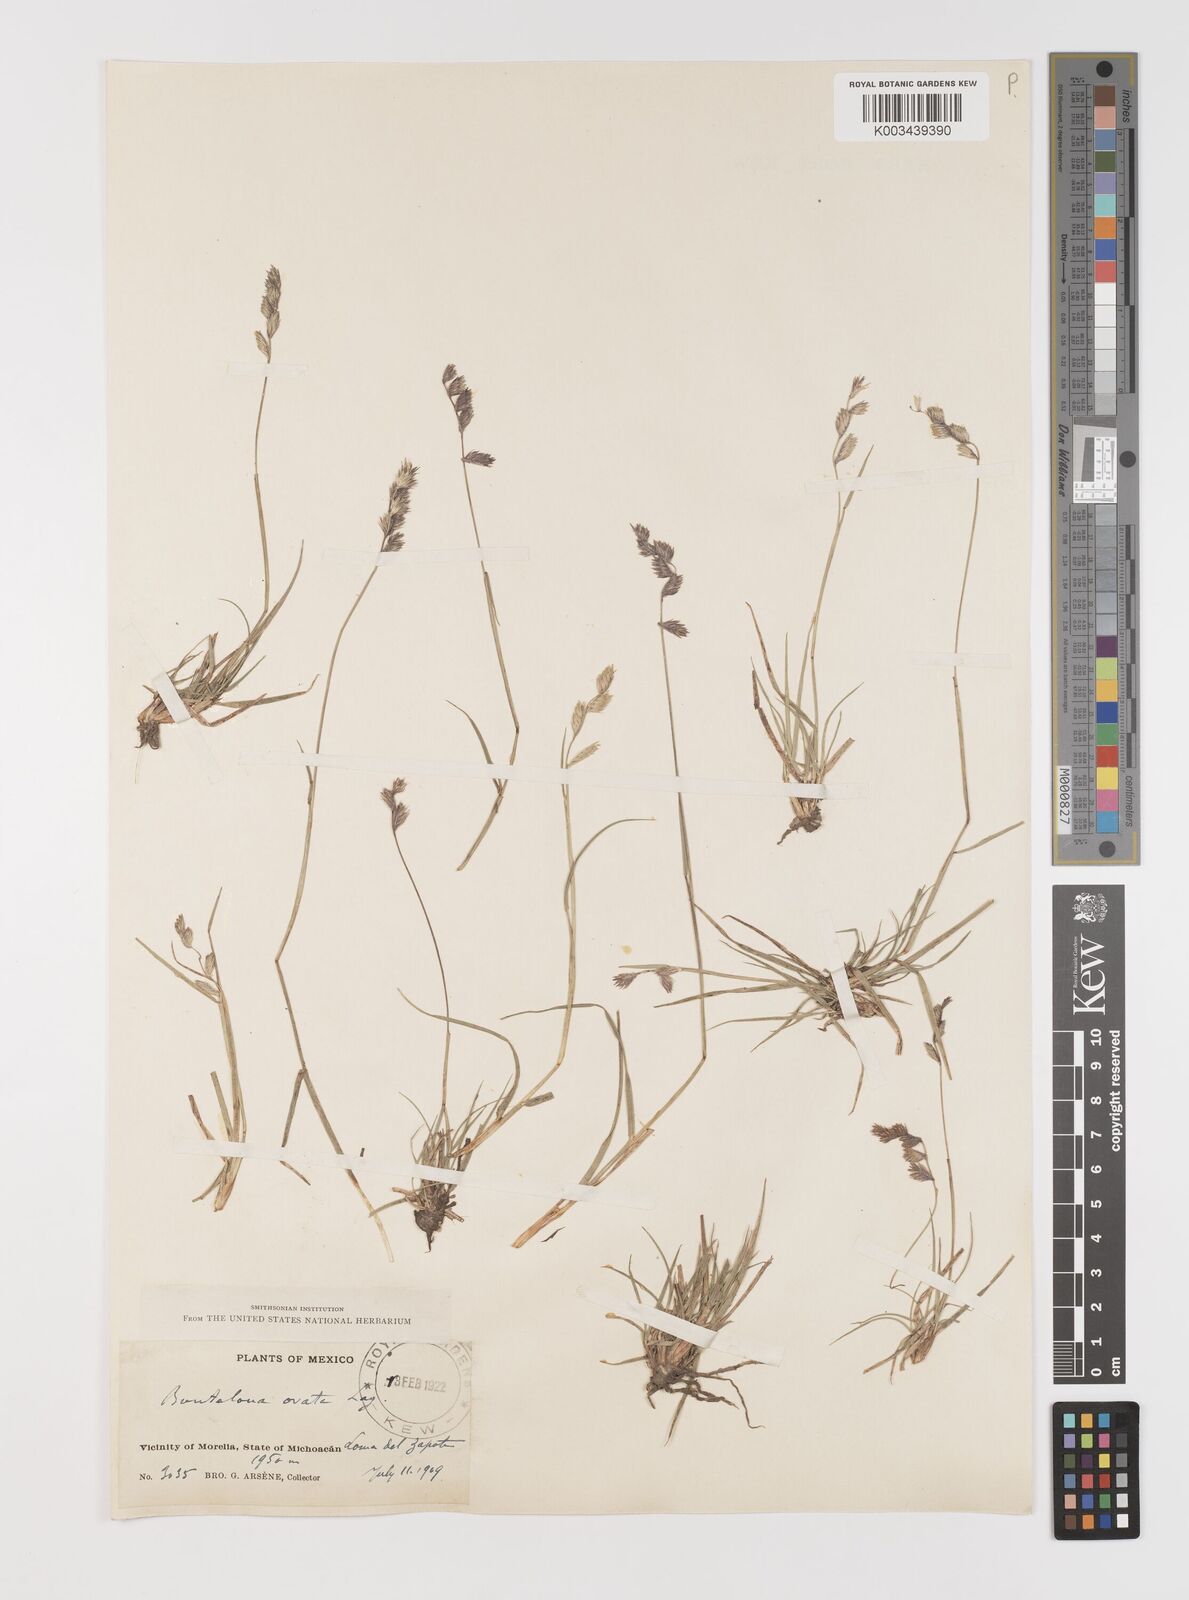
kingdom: Plantae
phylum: Tracheophyta
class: Liliopsida
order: Poales
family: Poaceae
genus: Bouteloua
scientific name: Bouteloua chondrosioides
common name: Sprucetop grama
